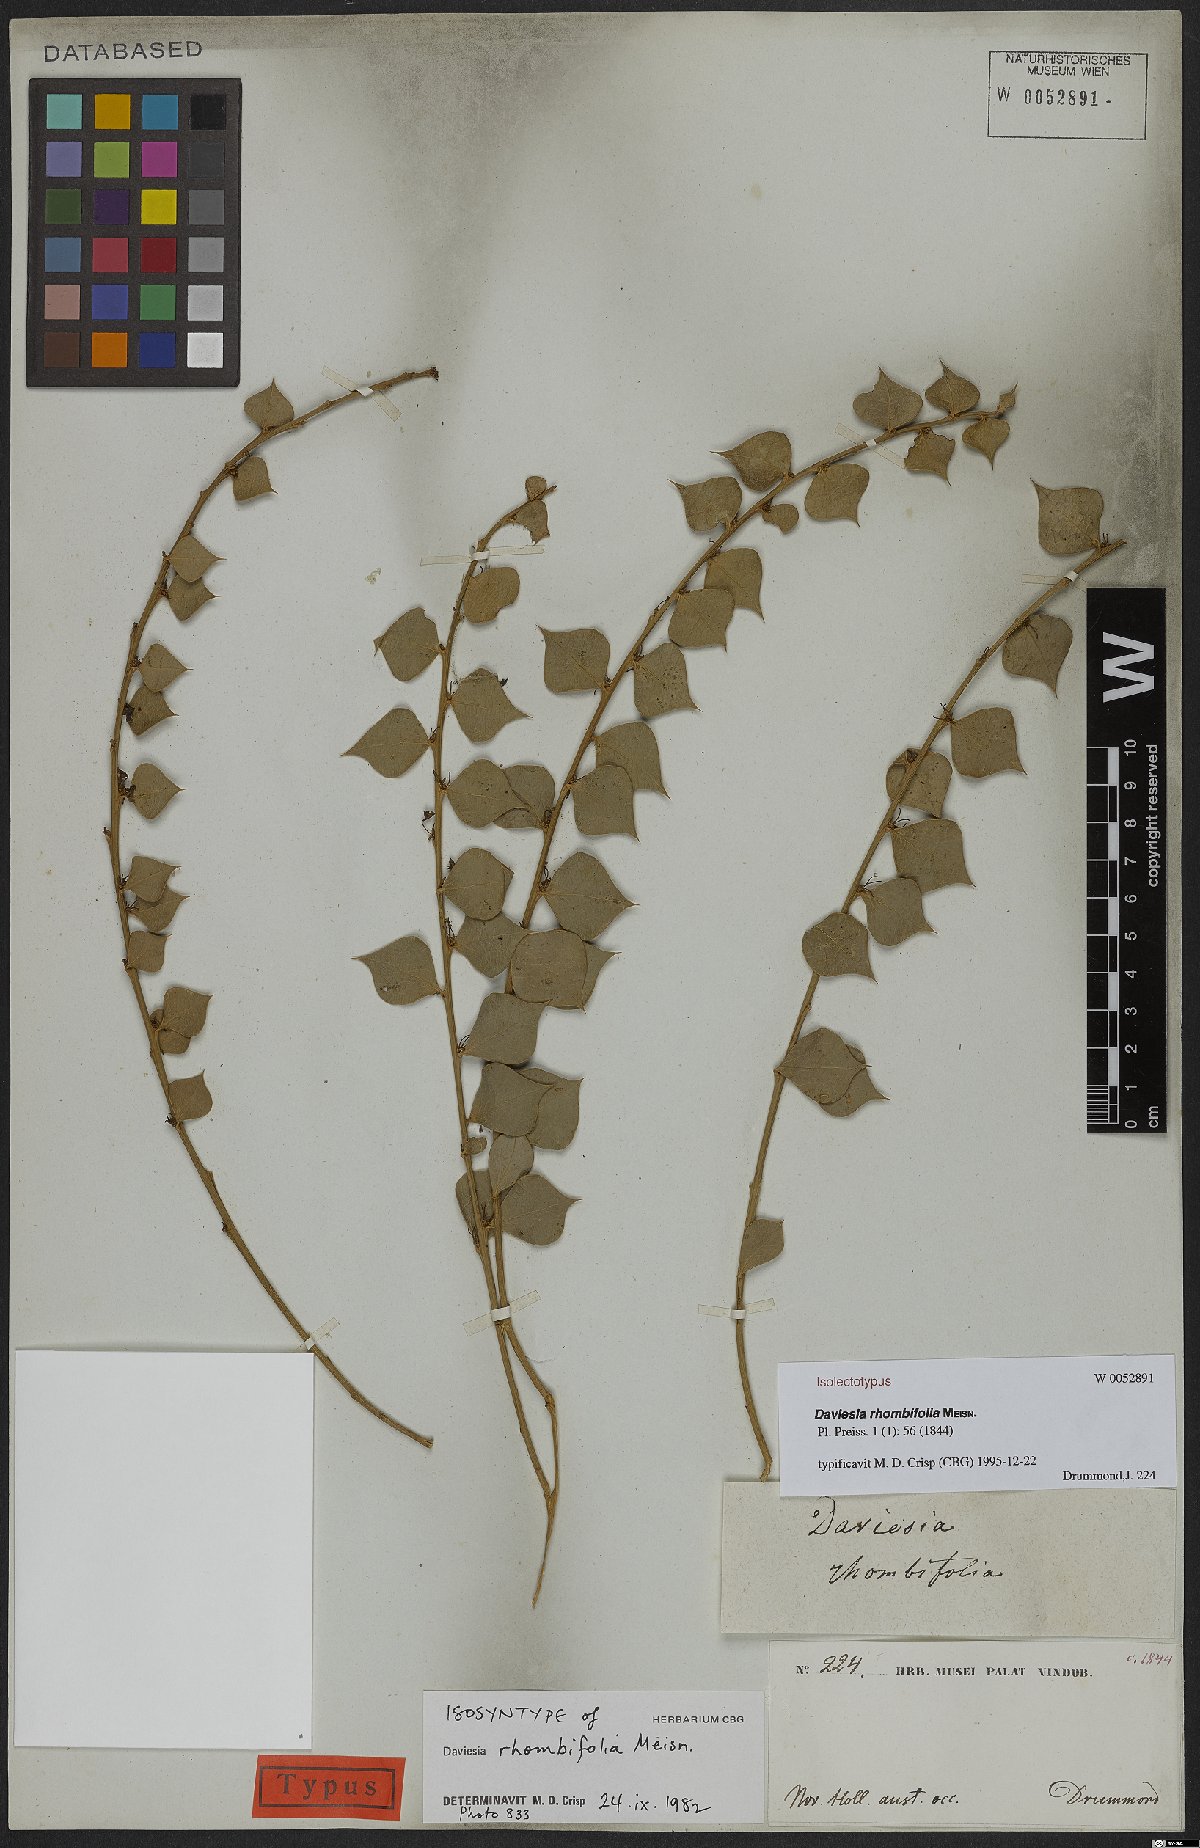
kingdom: Plantae
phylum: Tracheophyta
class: Magnoliopsida
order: Fabales
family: Fabaceae
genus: Daviesia
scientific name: Daviesia rhombifolia
